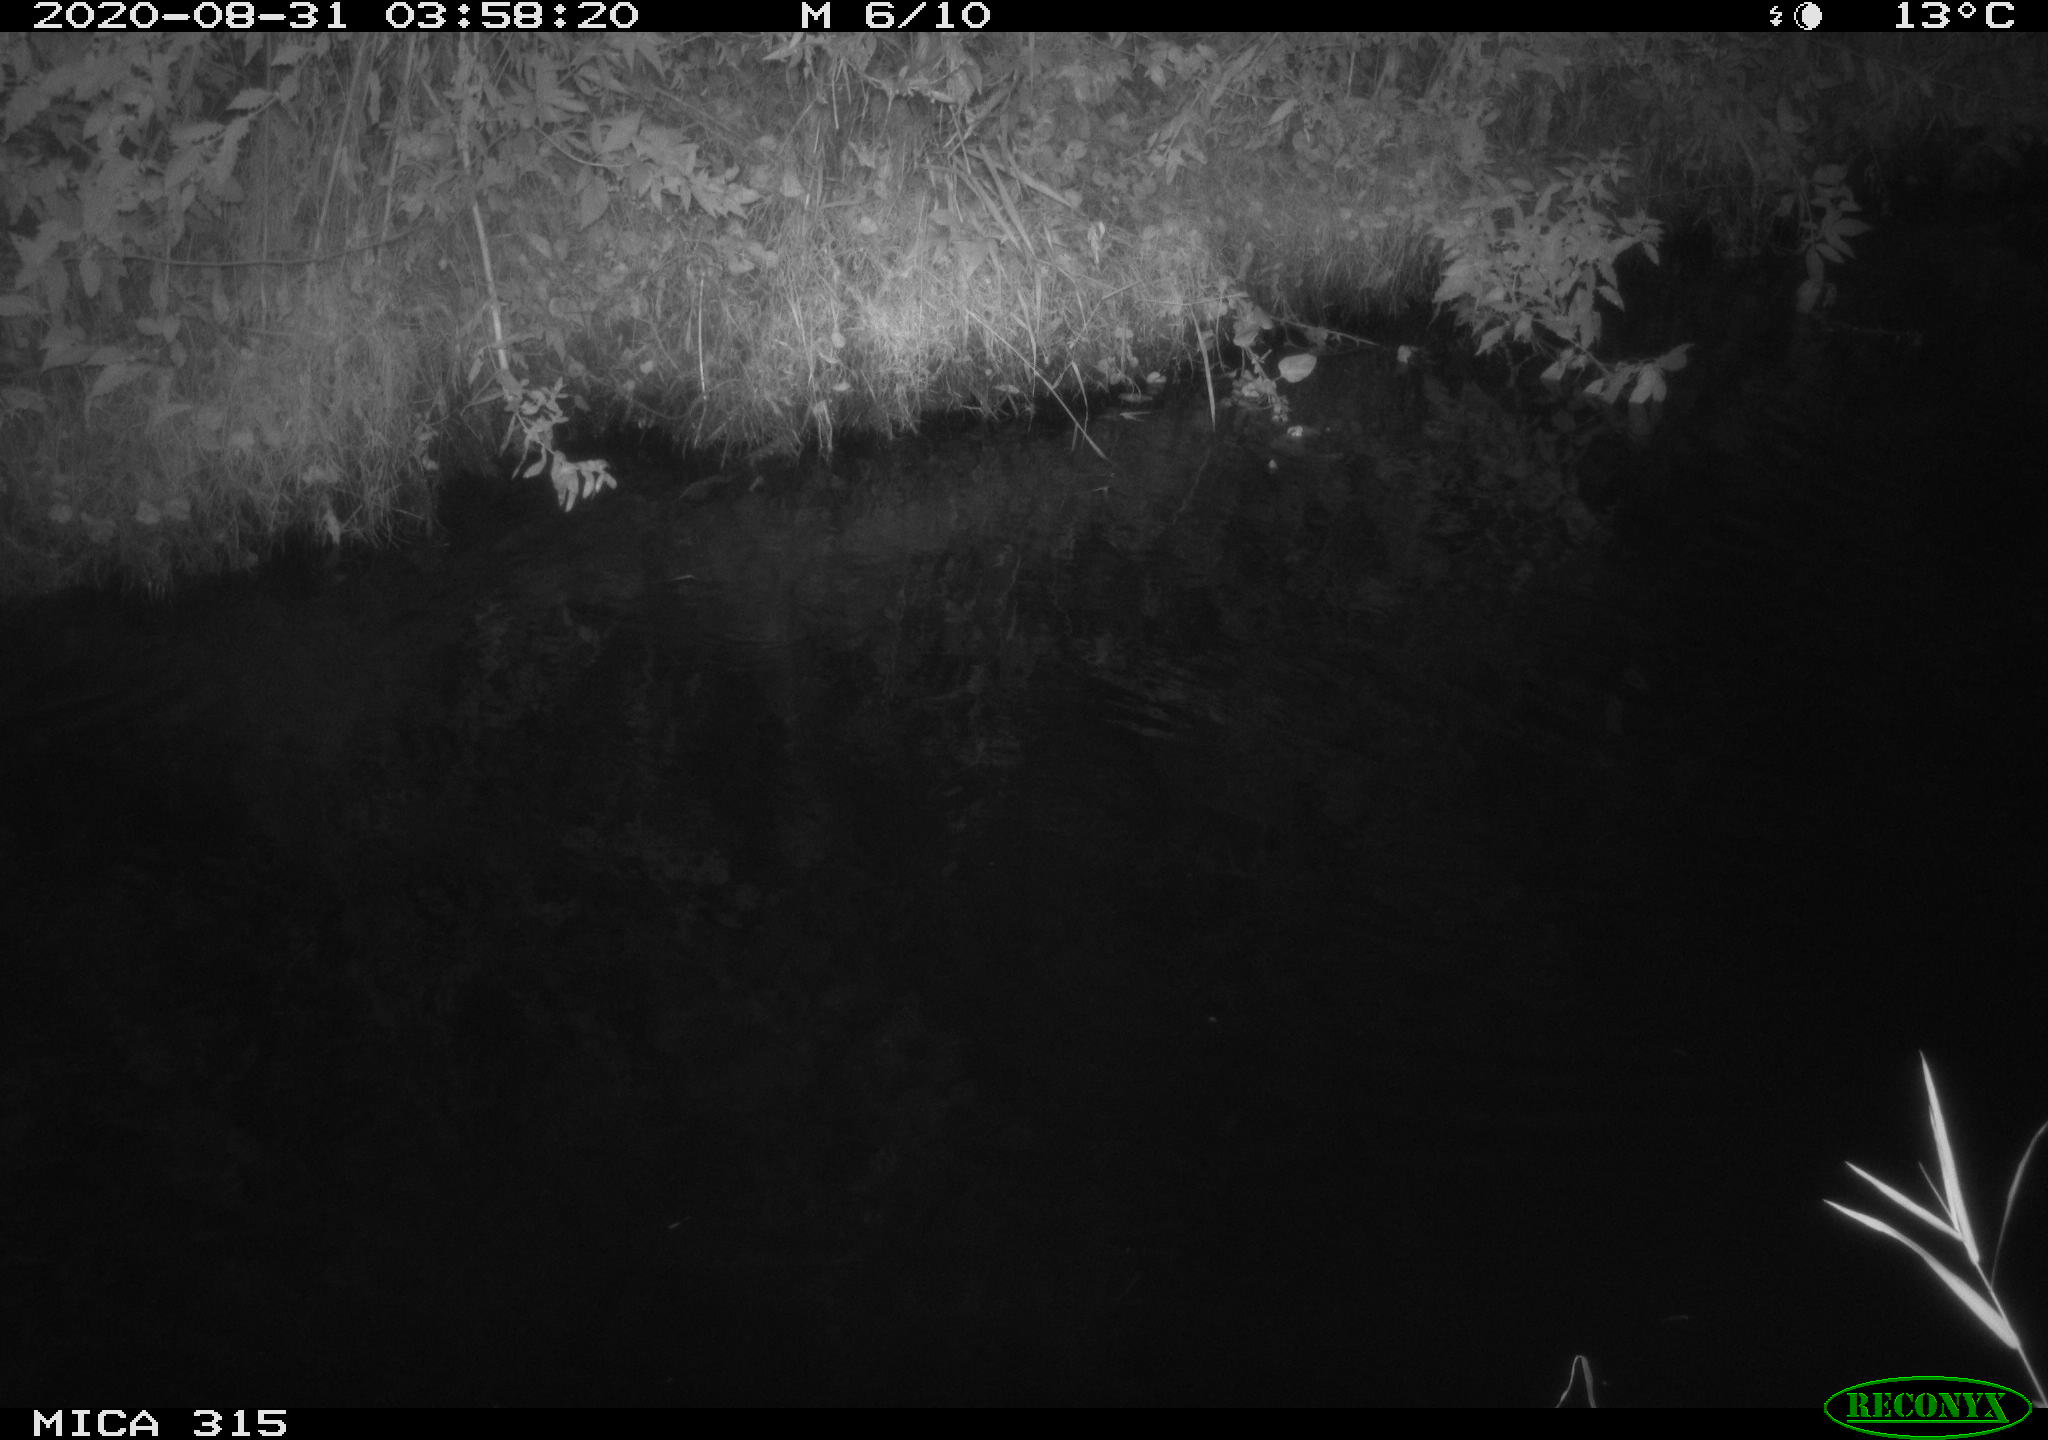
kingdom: Animalia
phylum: Chordata
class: Aves
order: Anseriformes
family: Anatidae
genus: Anas
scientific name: Anas platyrhynchos
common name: Mallard
